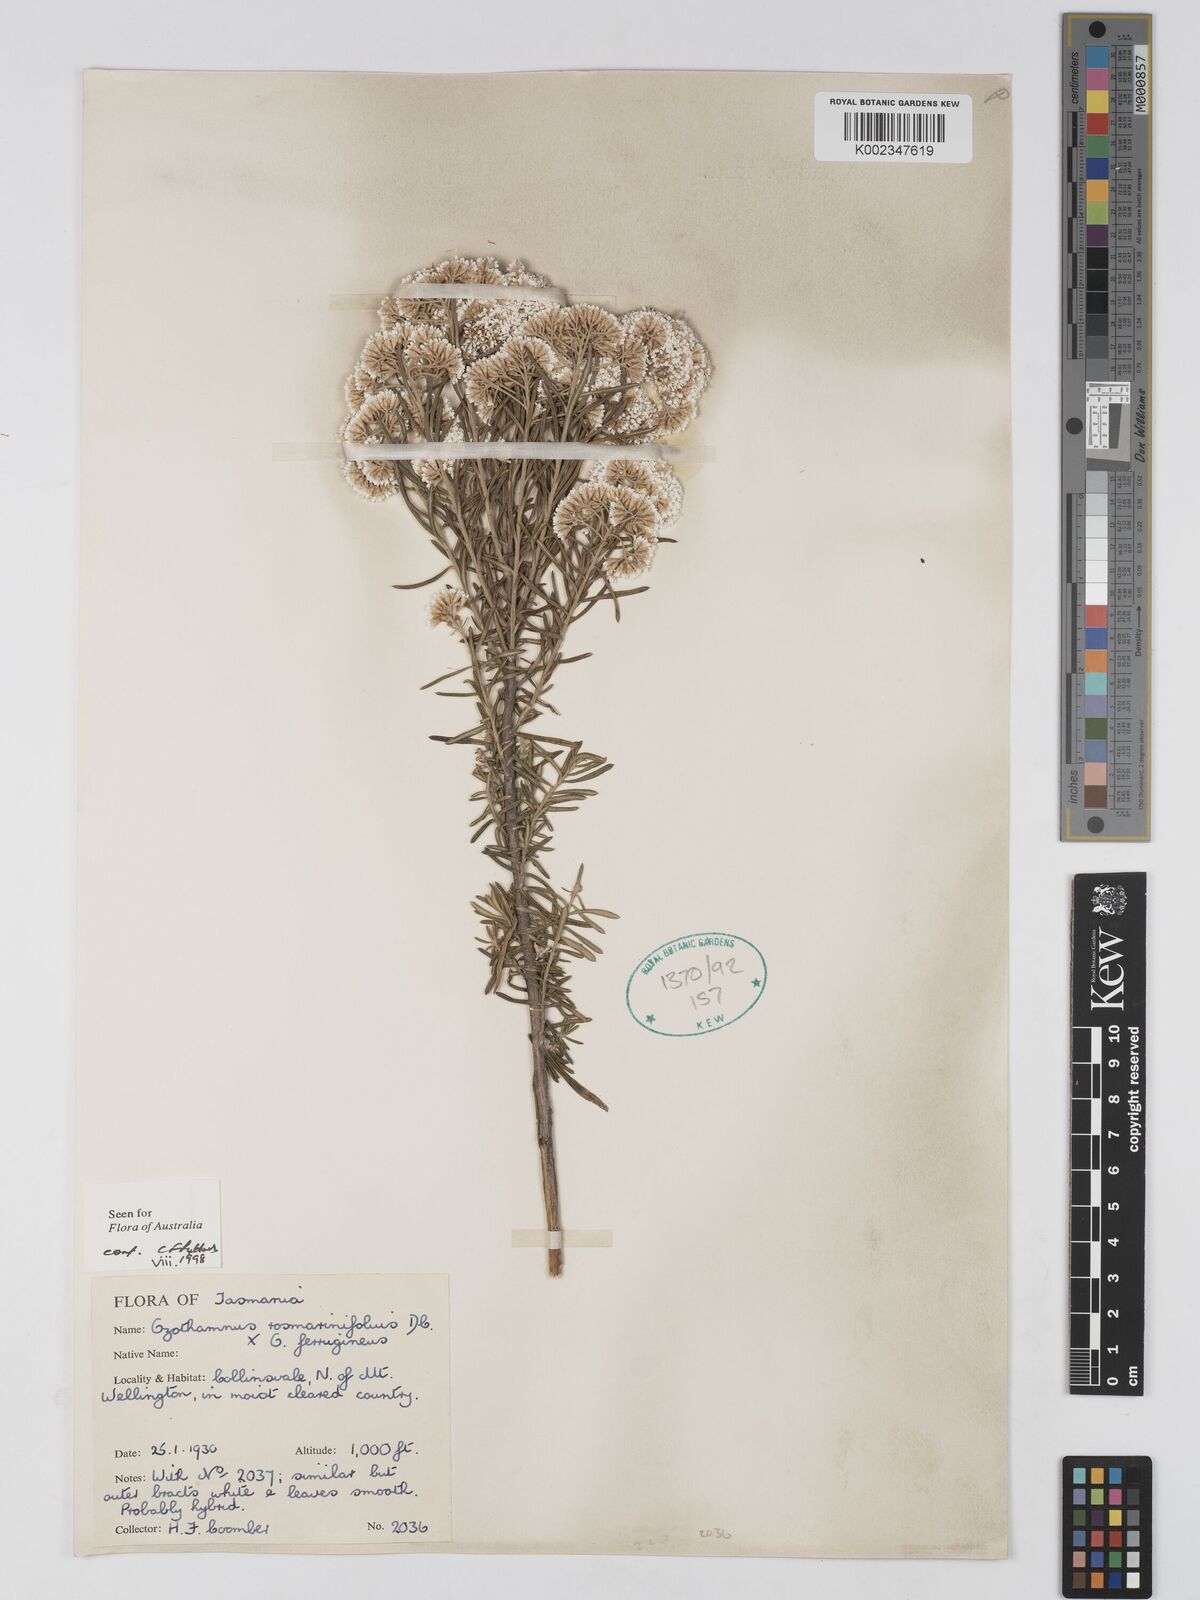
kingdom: Plantae
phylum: Tracheophyta
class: Magnoliopsida
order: Asterales
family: Asteraceae
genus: Ozothamnus
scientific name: Ozothamnus rosmarinifolius
